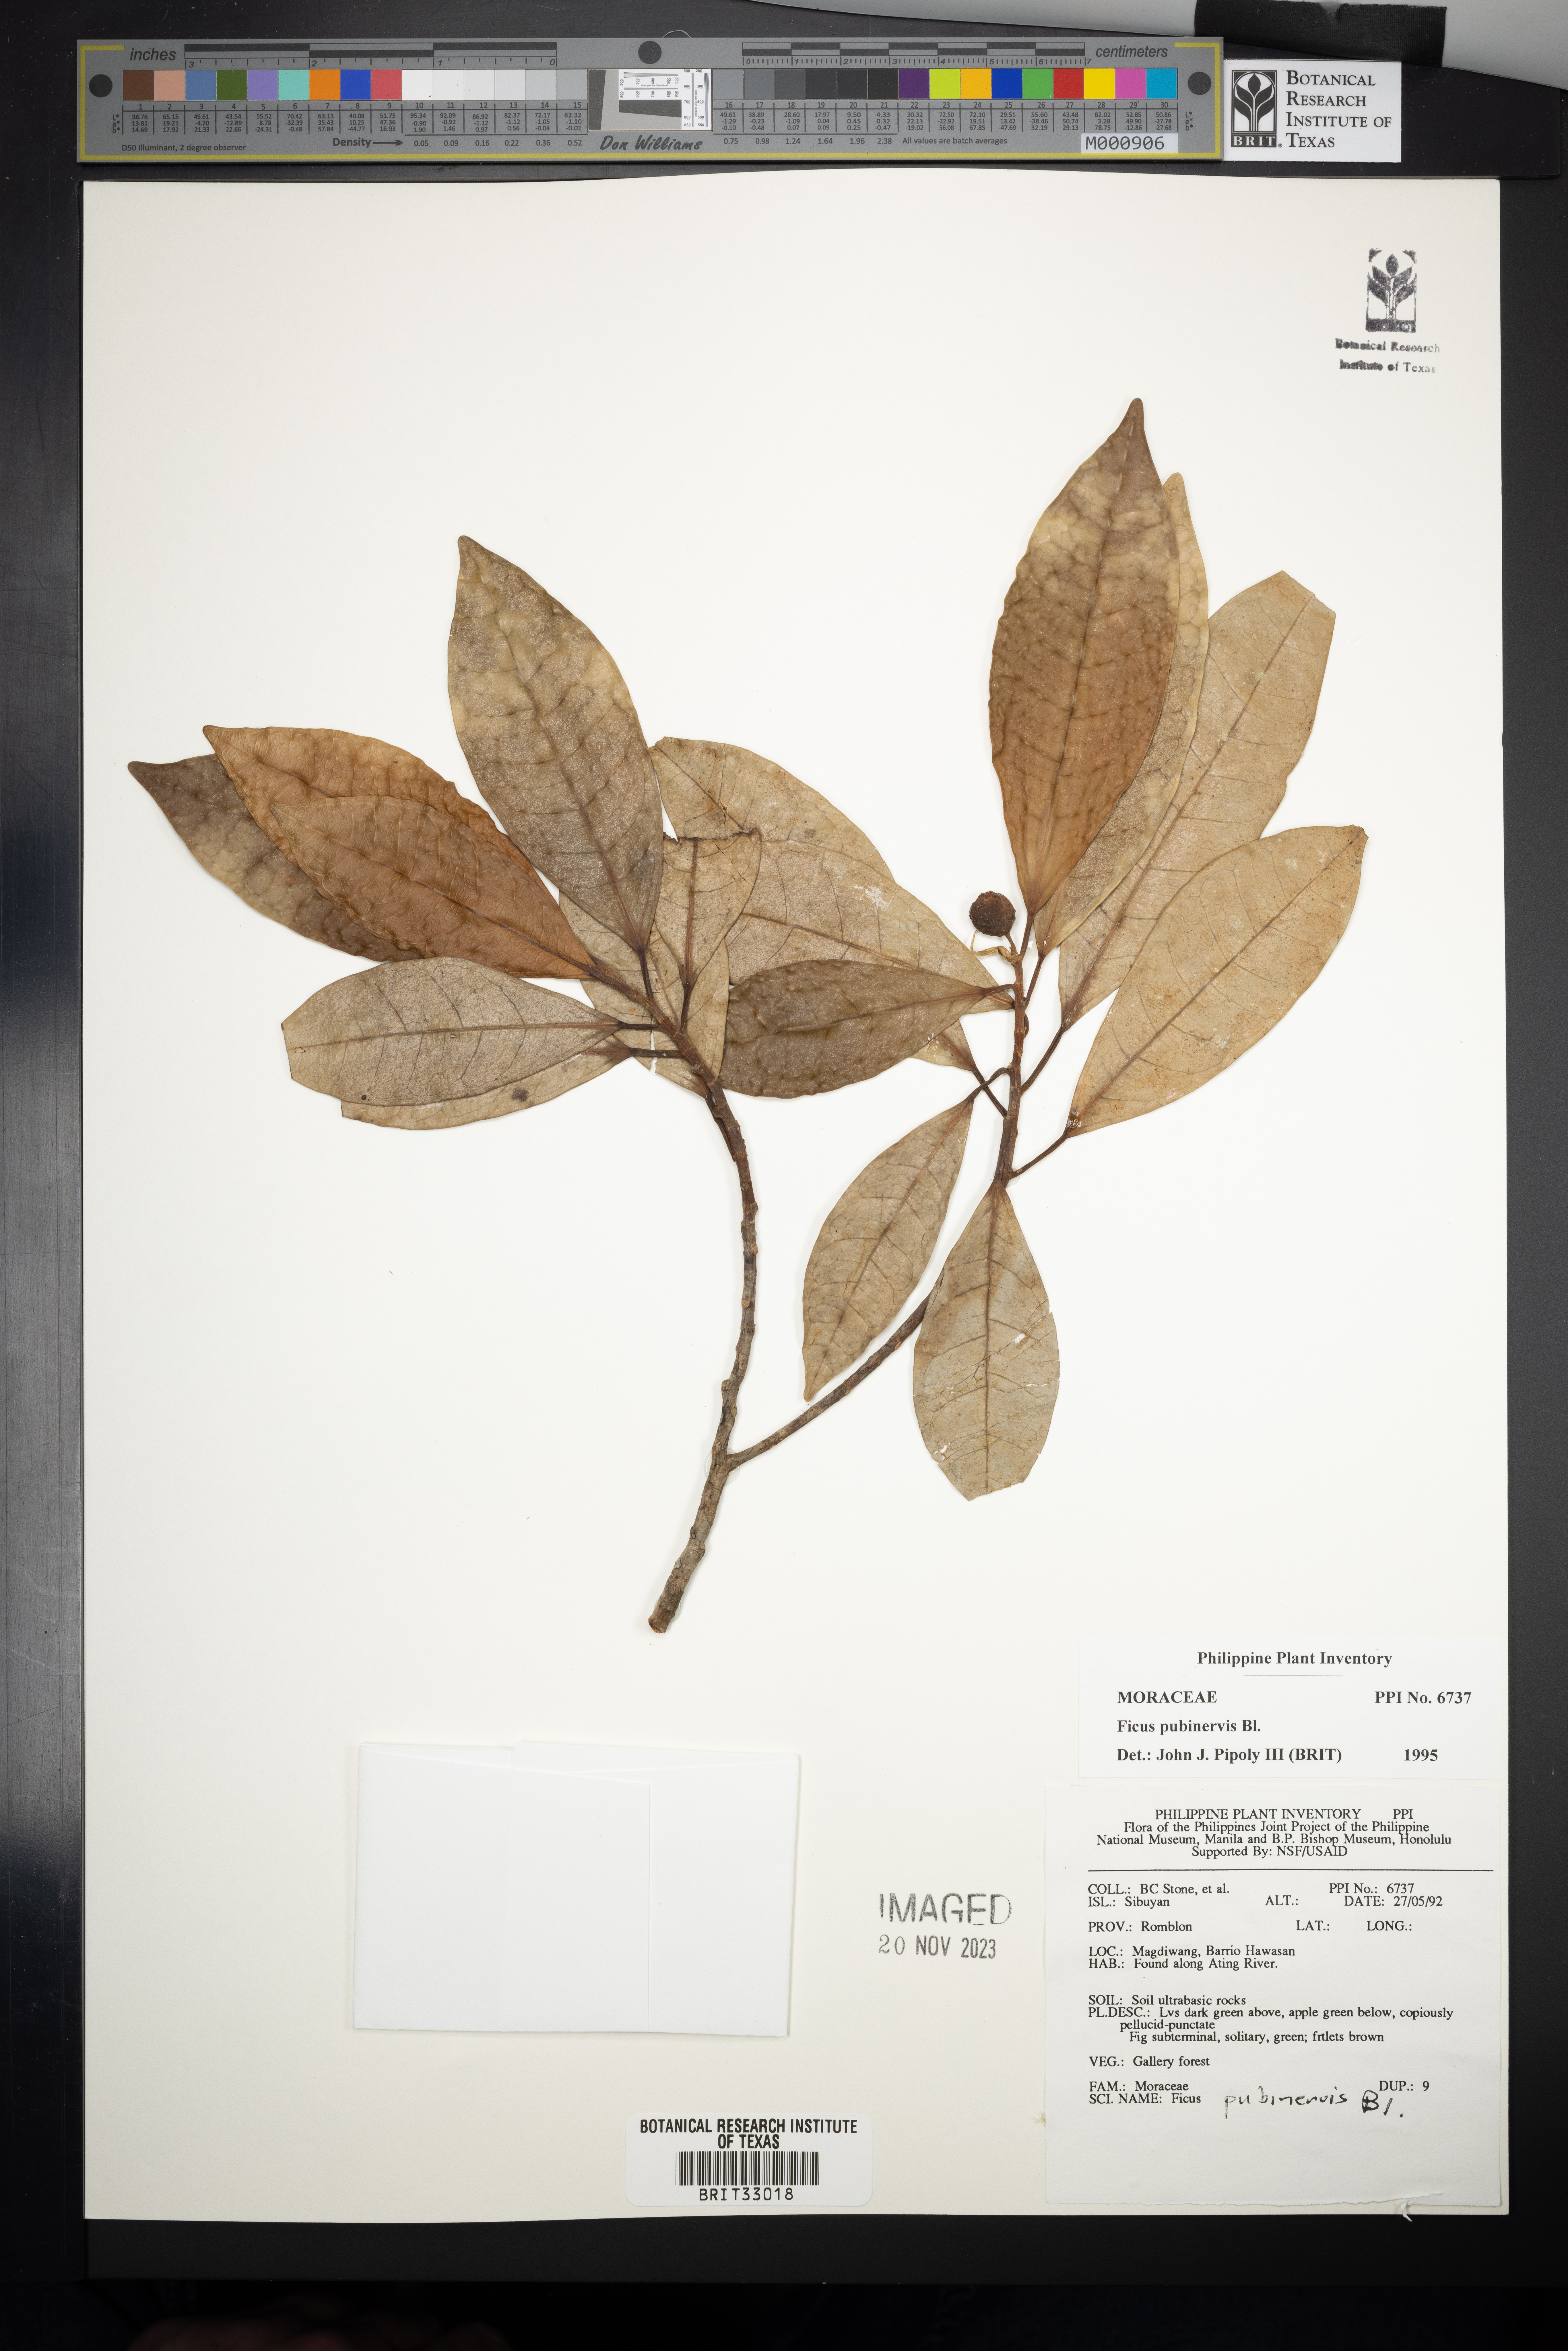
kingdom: Plantae
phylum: Tracheophyta
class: Magnoliopsida
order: Rosales
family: Moraceae
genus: Ficus
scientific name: Ficus nervosa
